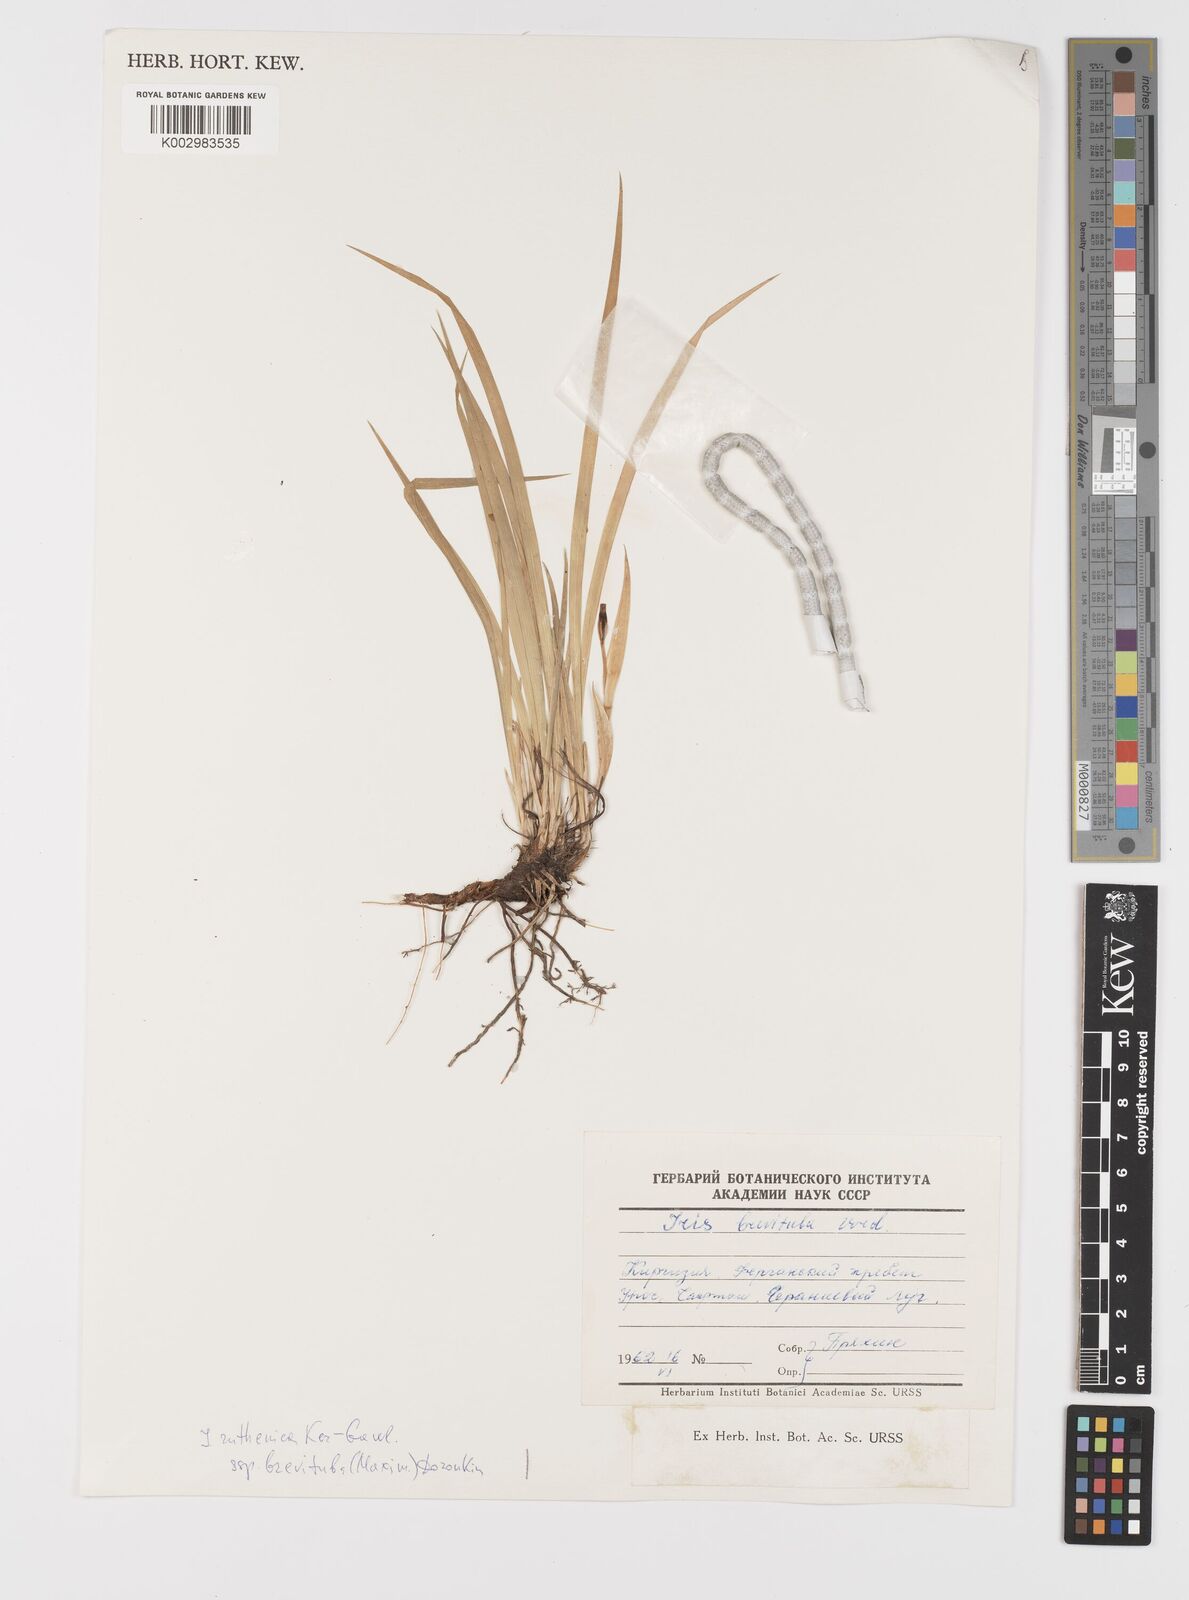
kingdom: Plantae
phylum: Tracheophyta
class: Liliopsida
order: Asparagales
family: Iridaceae
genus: Iris
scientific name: Iris ruthenica
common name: Purple-bract iris
